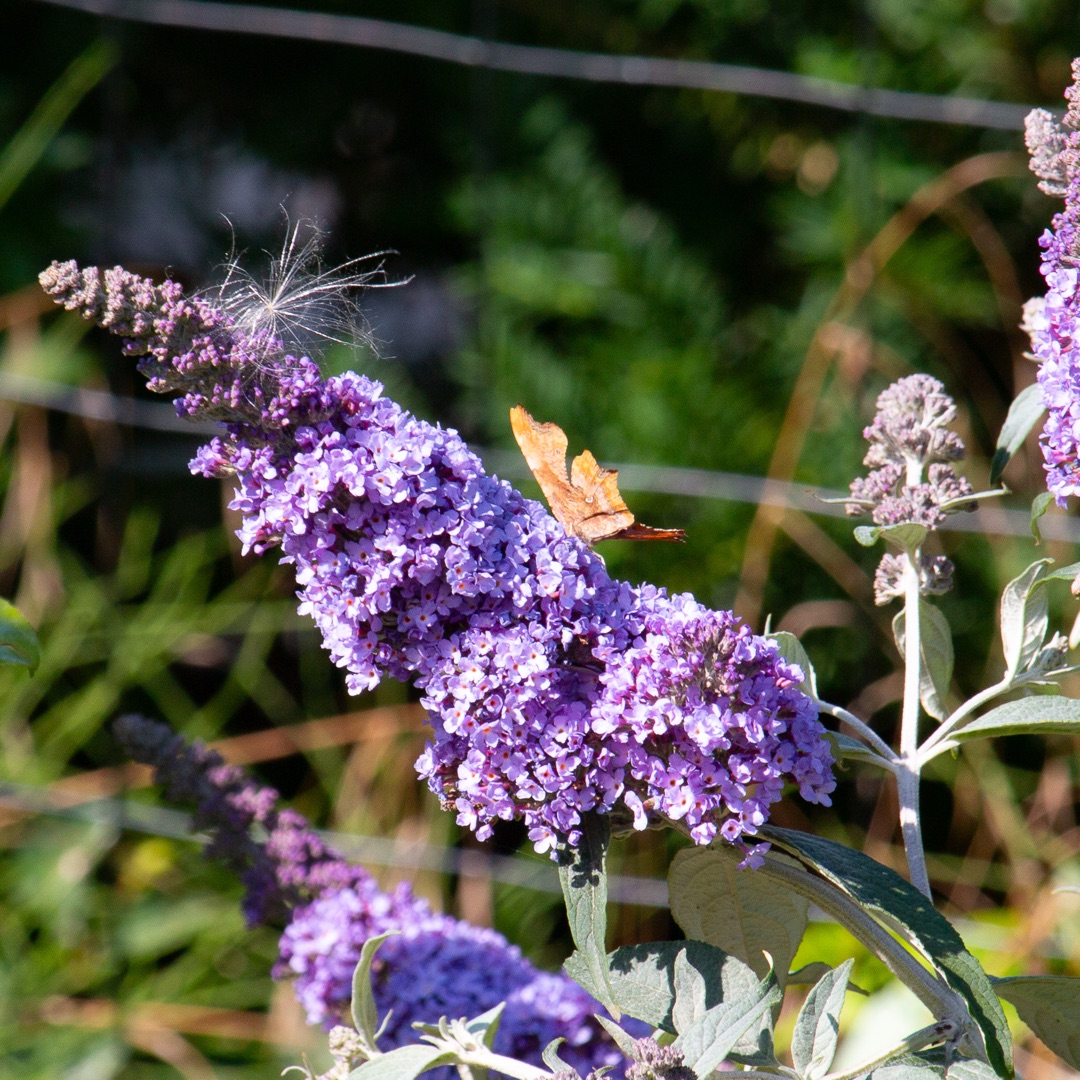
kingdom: Animalia
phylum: Arthropoda
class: Insecta
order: Lepidoptera
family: Nymphalidae
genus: Polygonia
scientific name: Polygonia c-album
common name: Det hvide C
